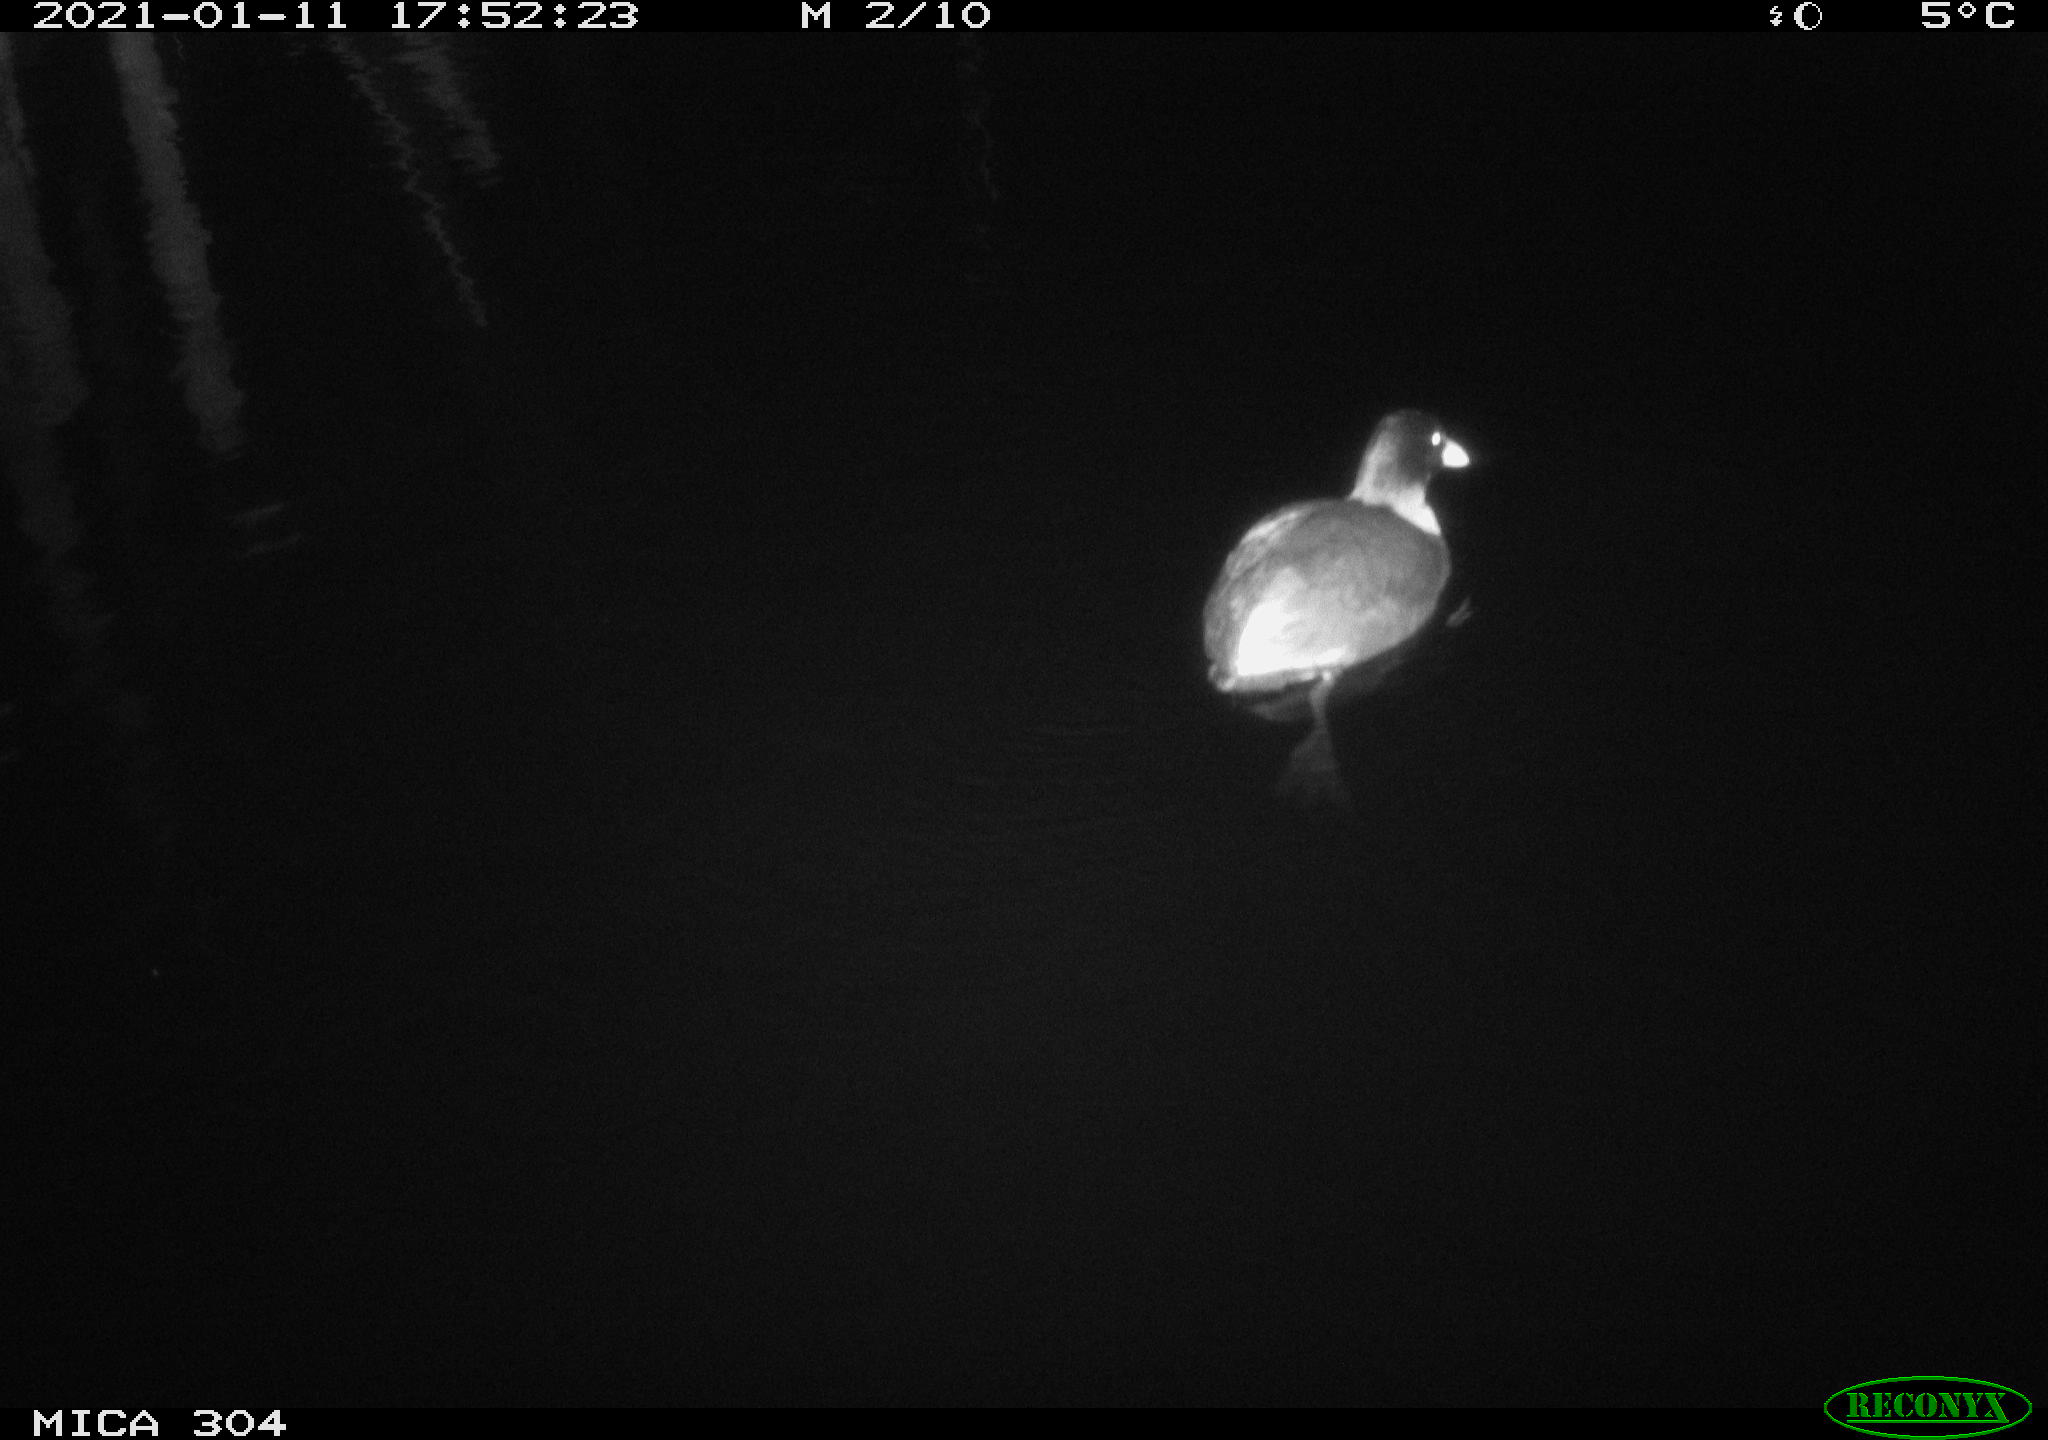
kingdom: Animalia
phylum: Chordata
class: Aves
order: Gruiformes
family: Rallidae
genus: Fulica
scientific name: Fulica atra
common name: Eurasian coot
